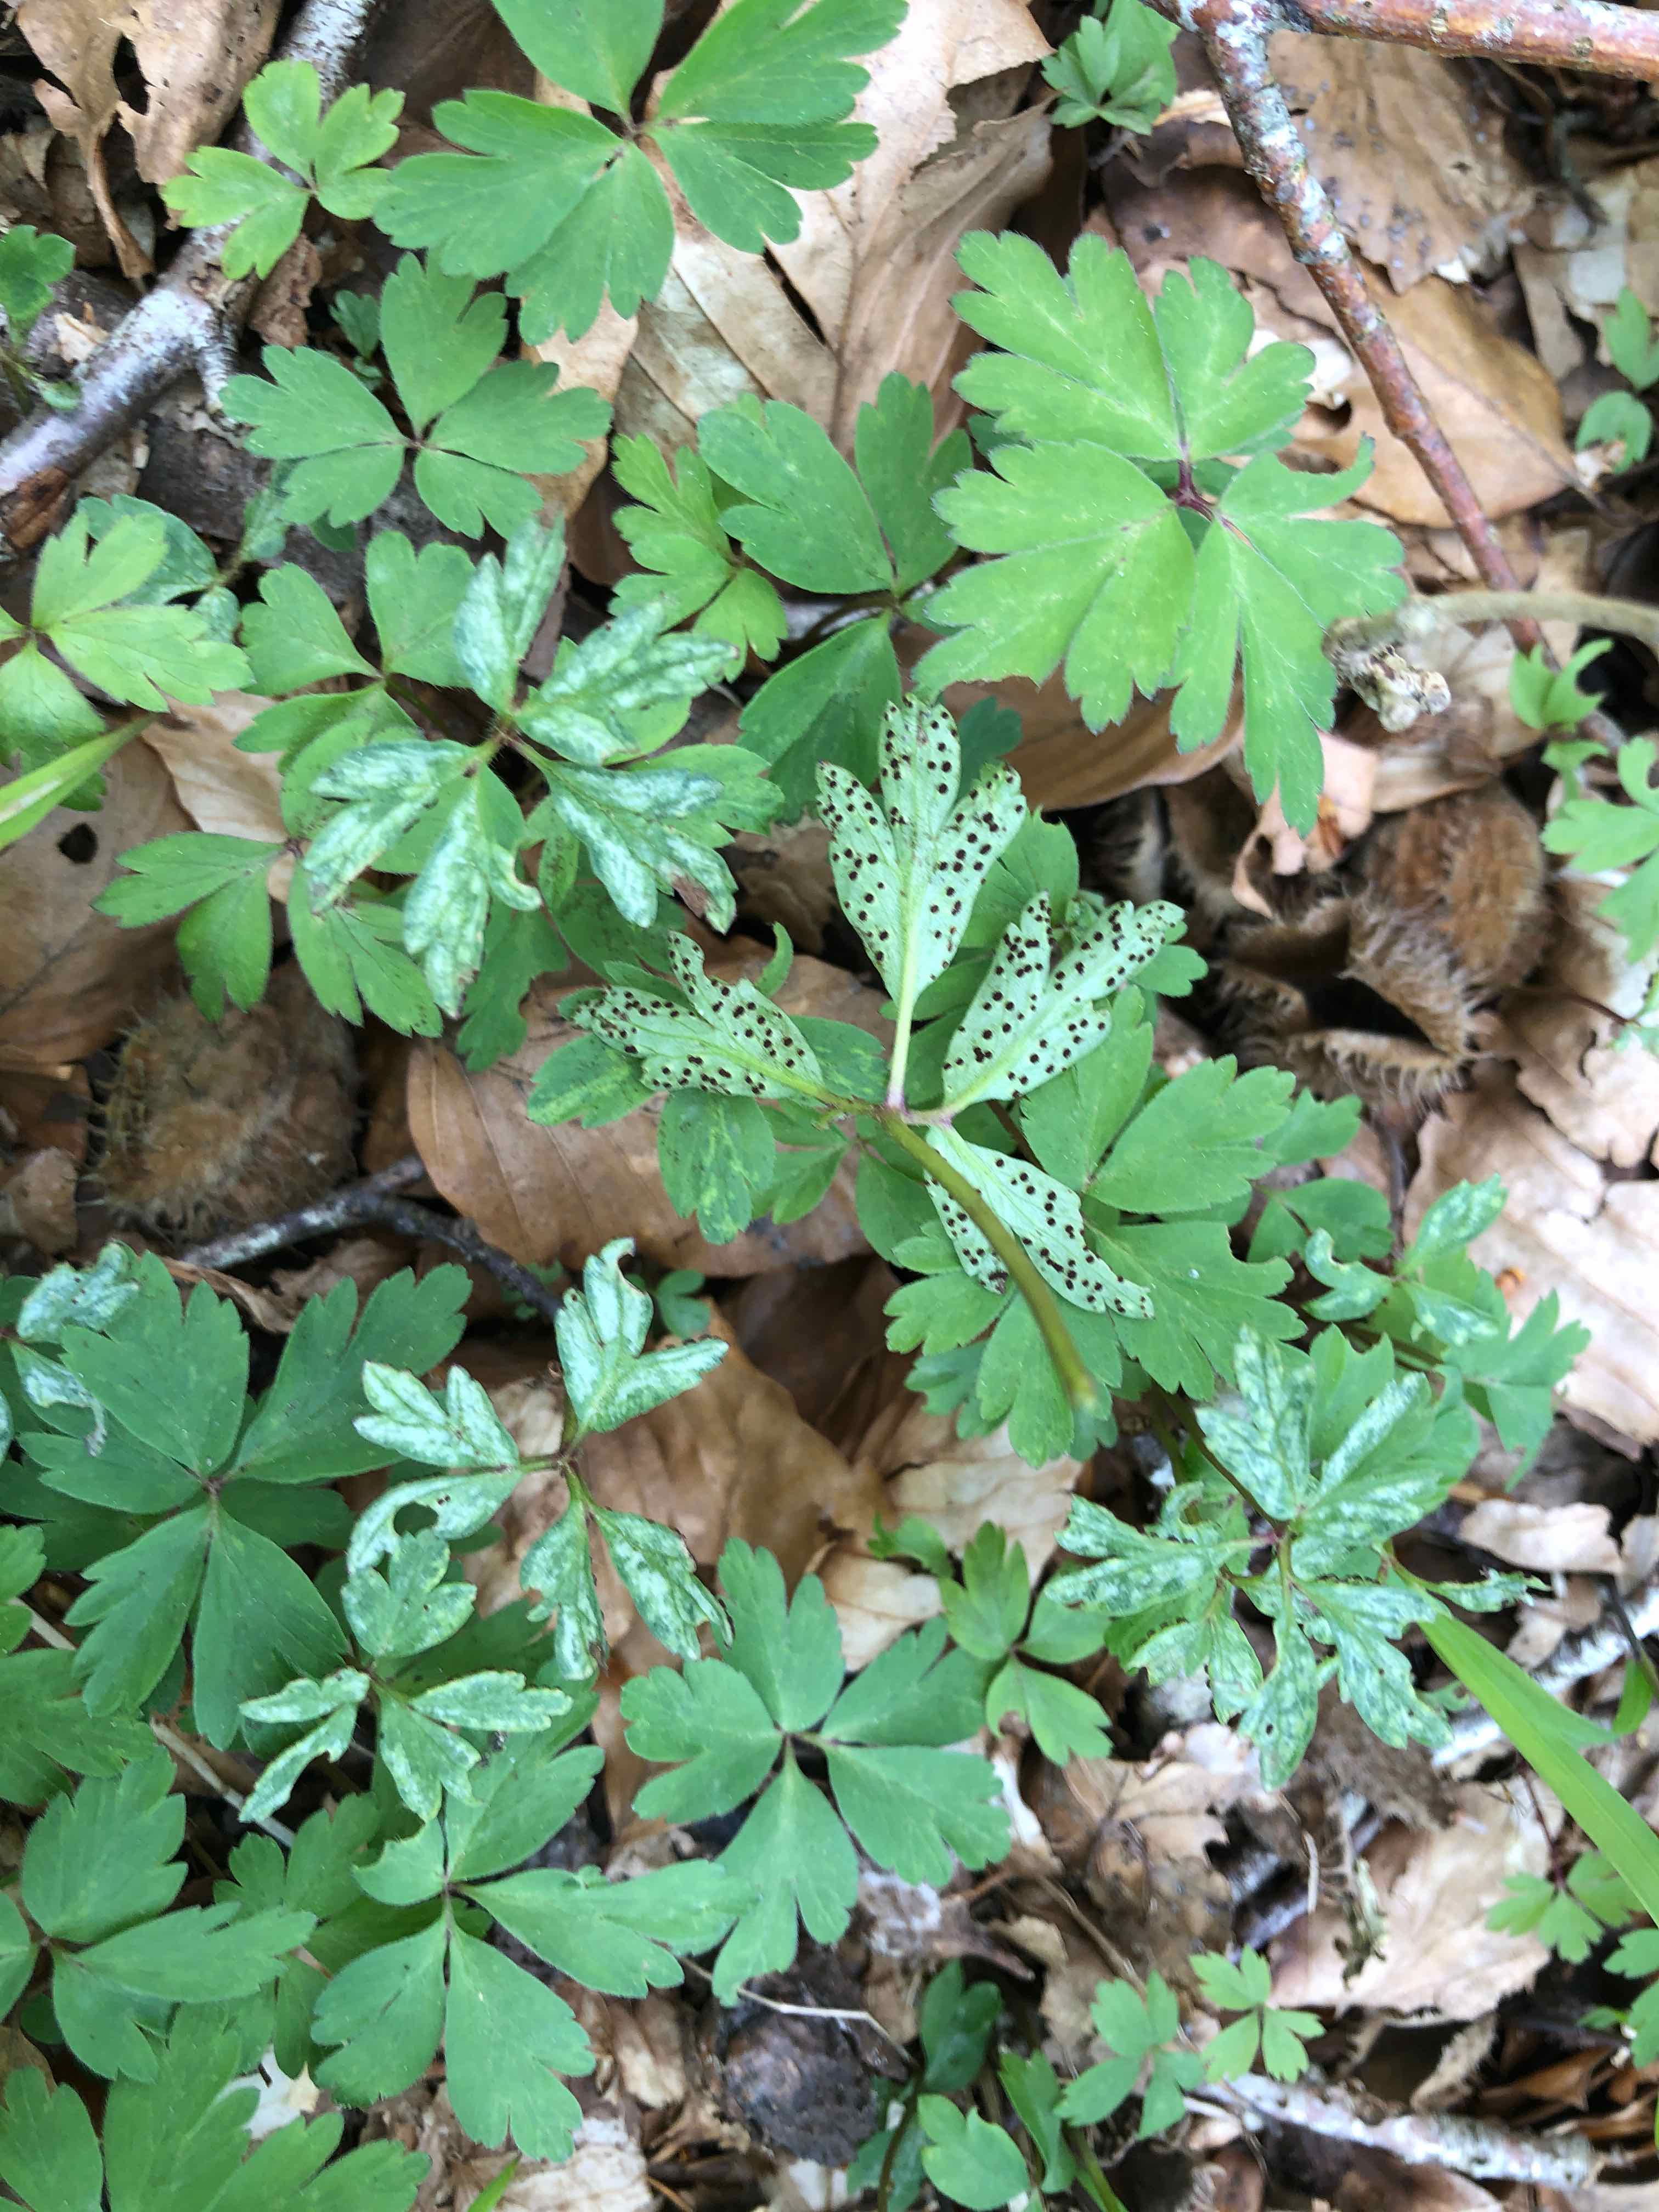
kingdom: Fungi
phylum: Basidiomycota
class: Pucciniomycetes
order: Pucciniales
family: Tranzscheliaceae
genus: Tranzschelia
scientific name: Tranzschelia anemones
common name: anemone-knæksporerust
